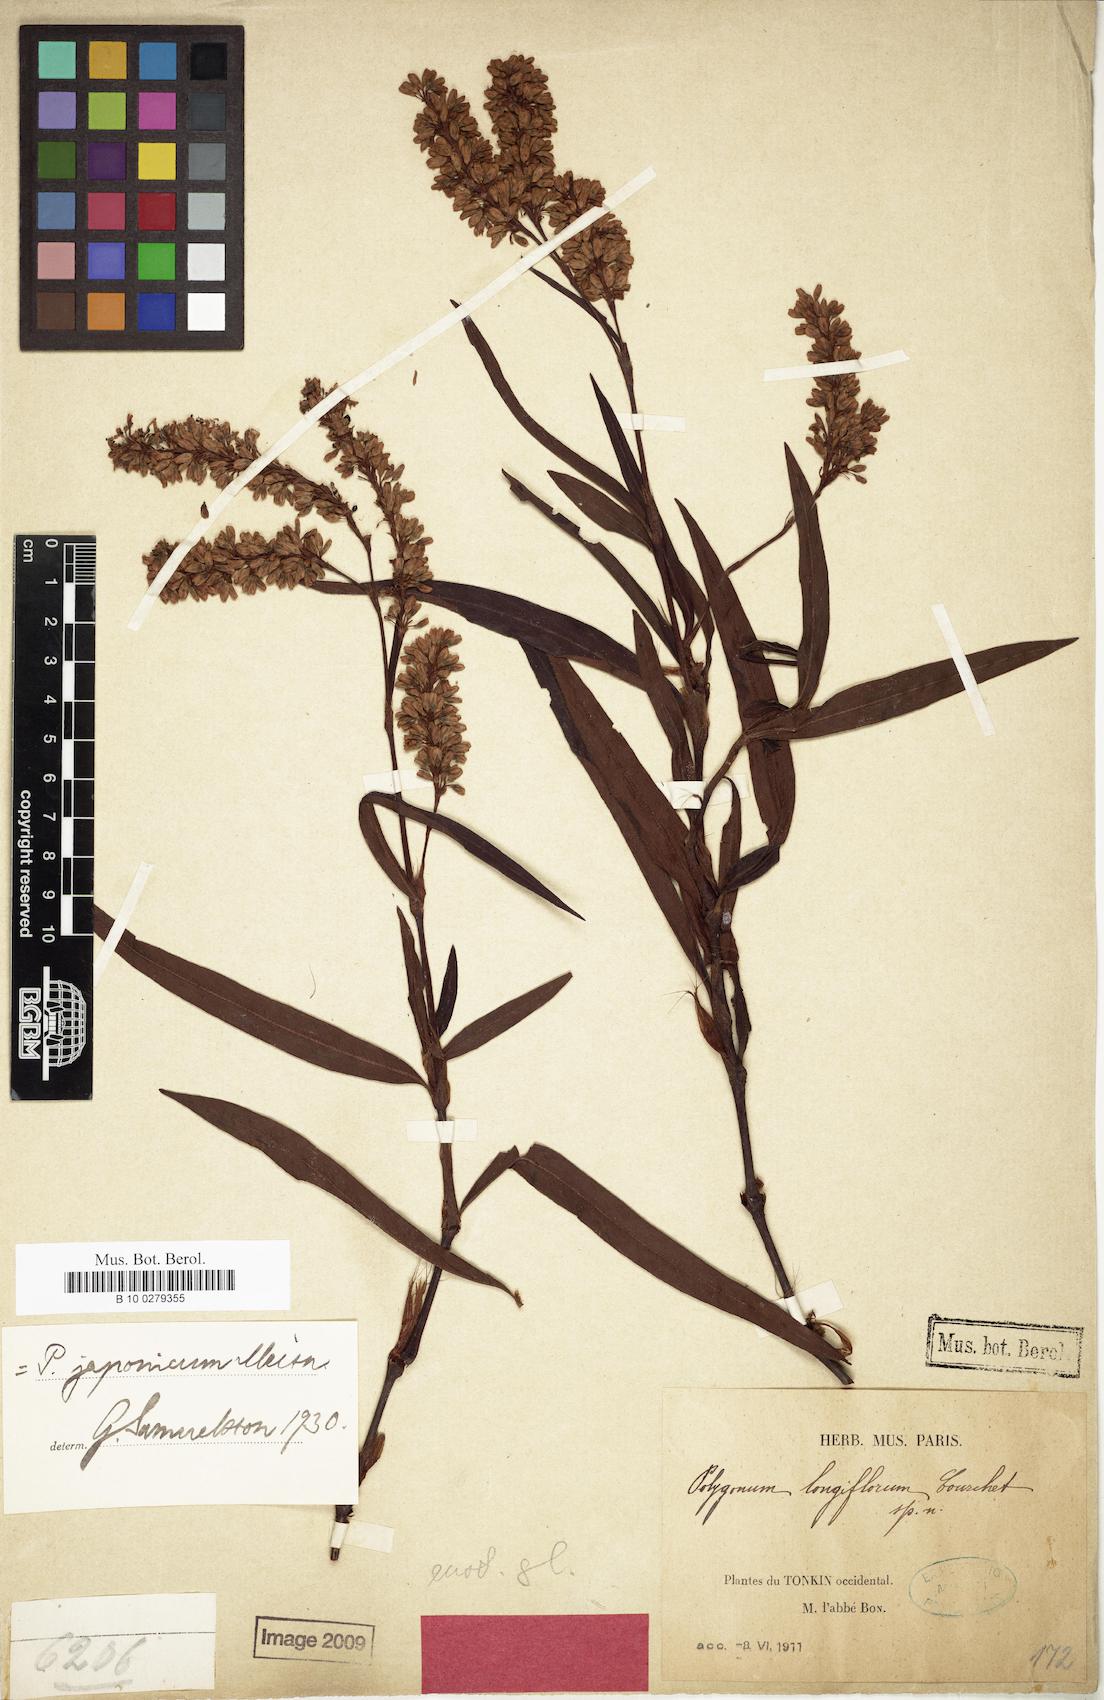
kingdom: Plantae
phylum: Tracheophyta
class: Magnoliopsida
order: Caryophyllales
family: Polygonaceae
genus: Persicaria
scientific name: Persicaria longiflora
